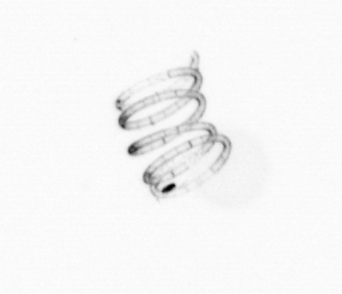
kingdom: Chromista
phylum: Ochrophyta
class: Bacillariophyceae
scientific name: Bacillariophyceae
